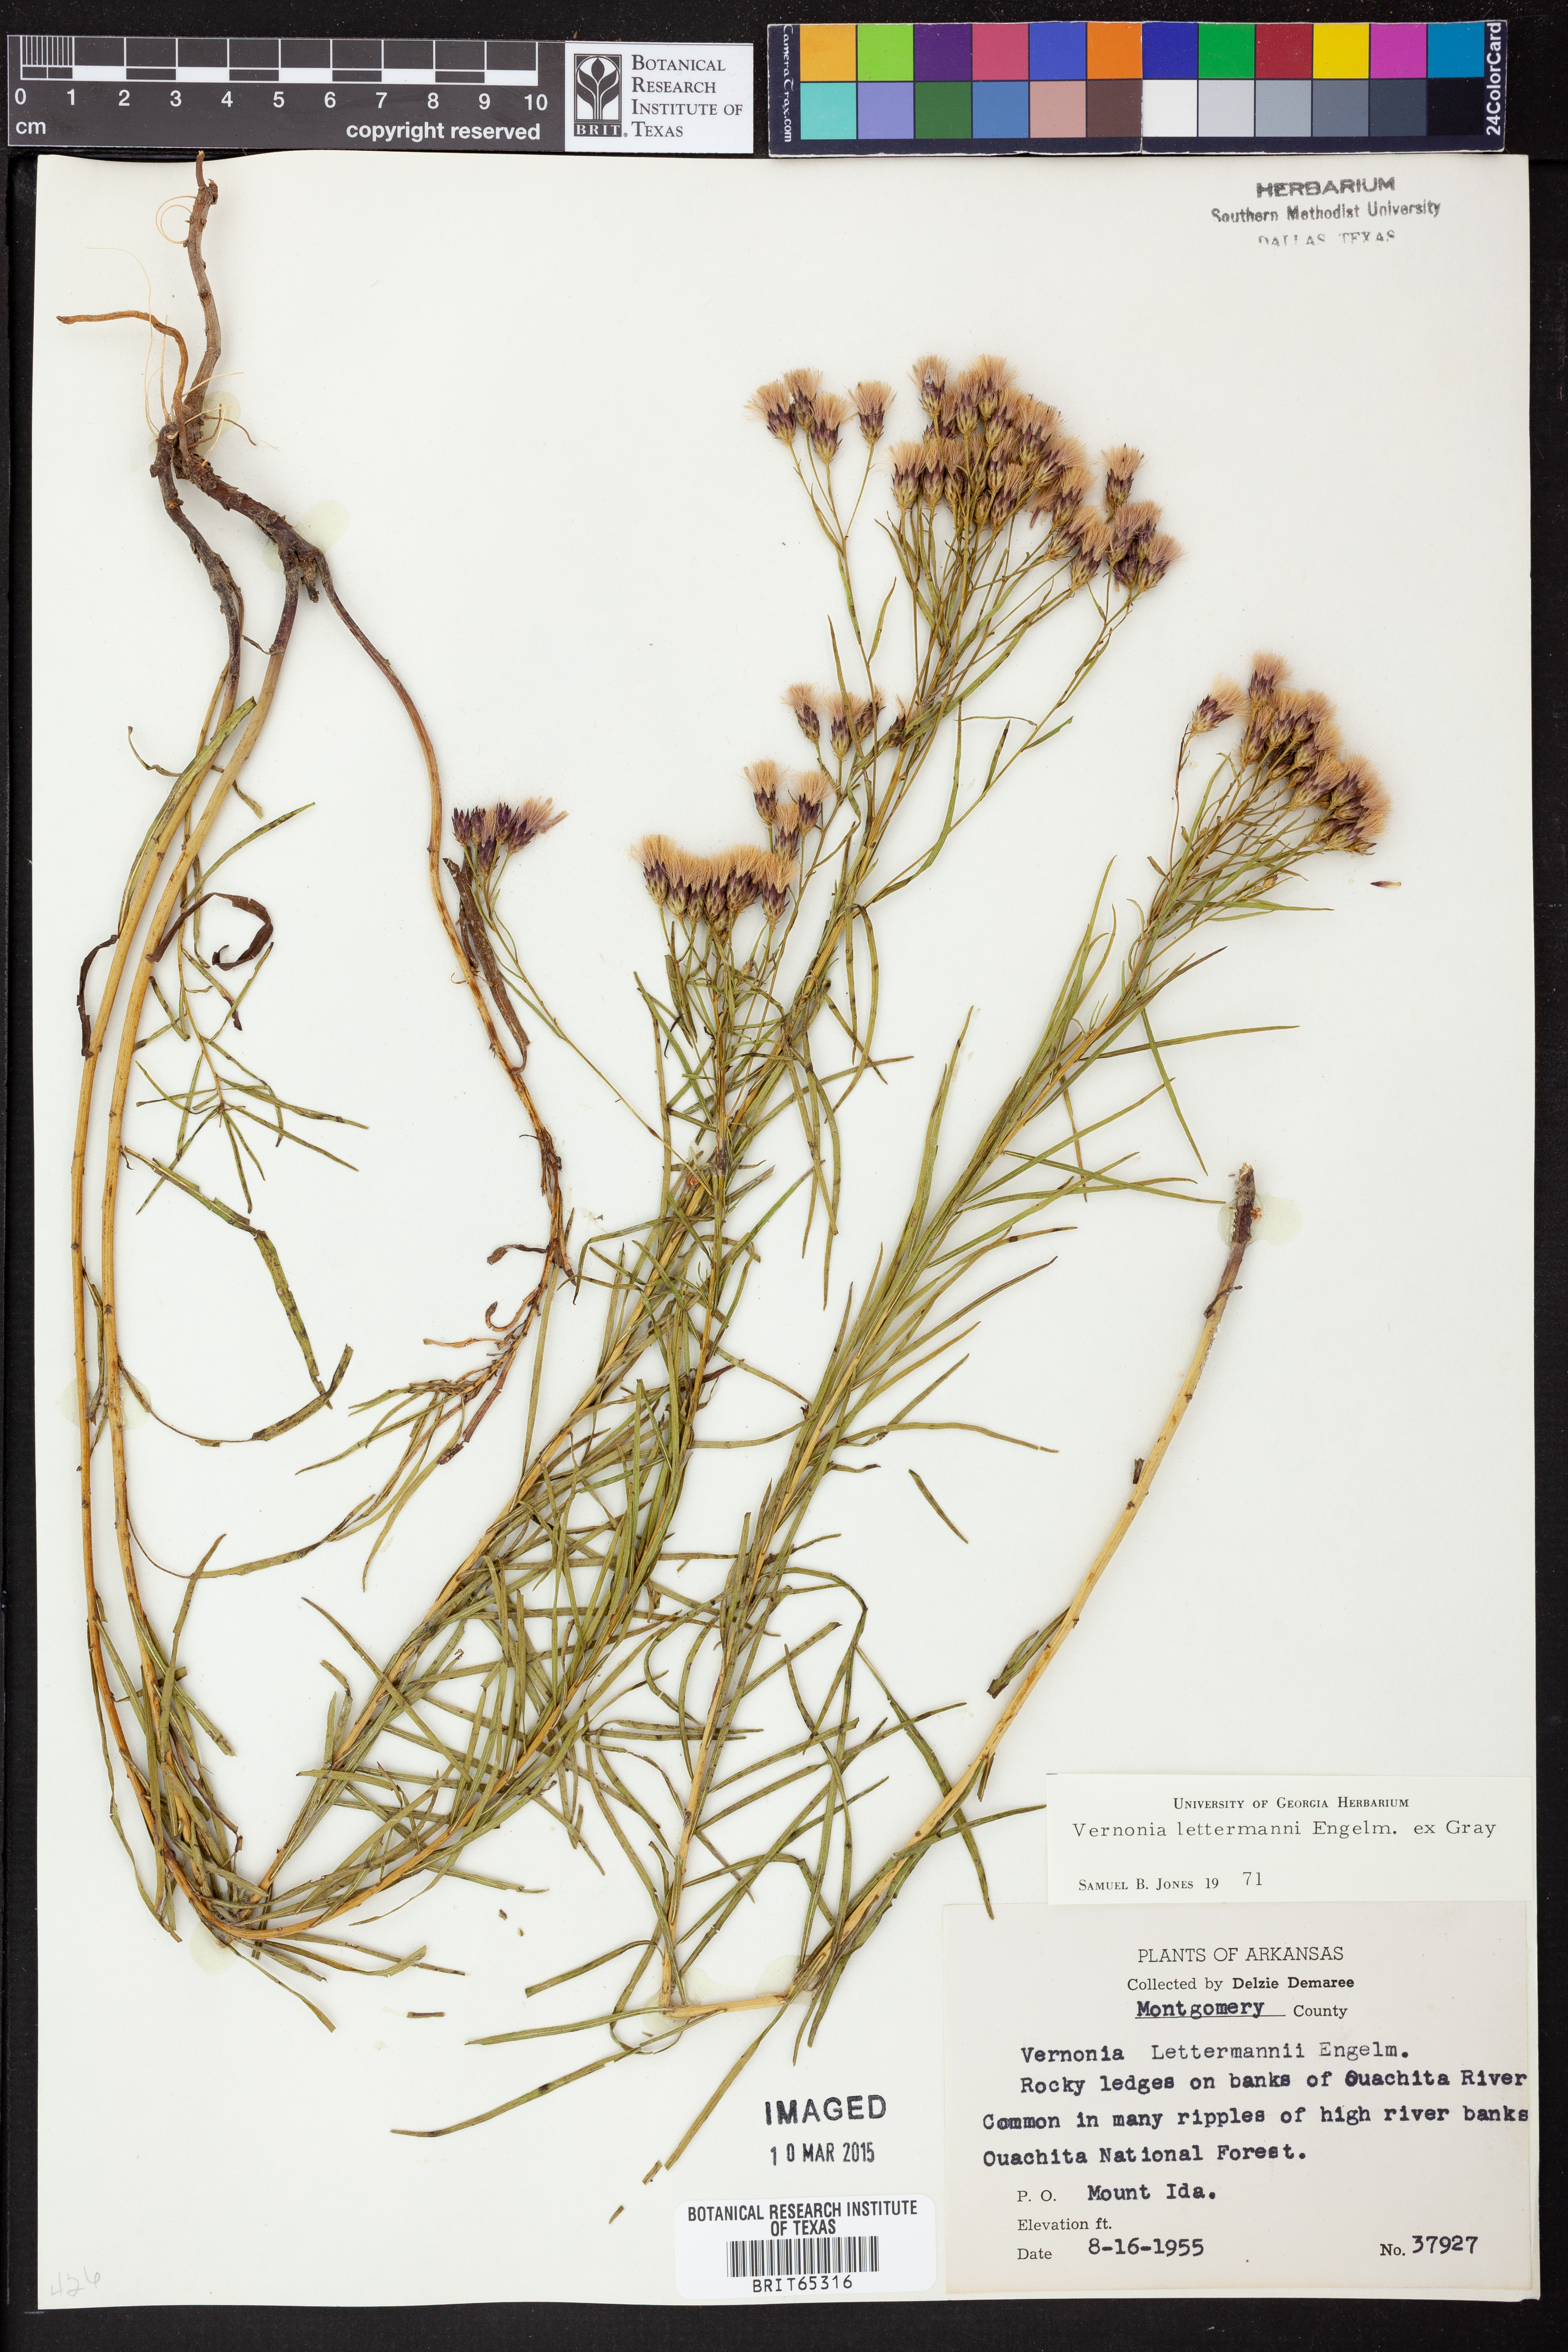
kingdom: Plantae
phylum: Tracheophyta
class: Magnoliopsida
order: Asterales
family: Asteraceae
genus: Vernonia
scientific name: Vernonia lettermannii
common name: Lettermann's ironweed
